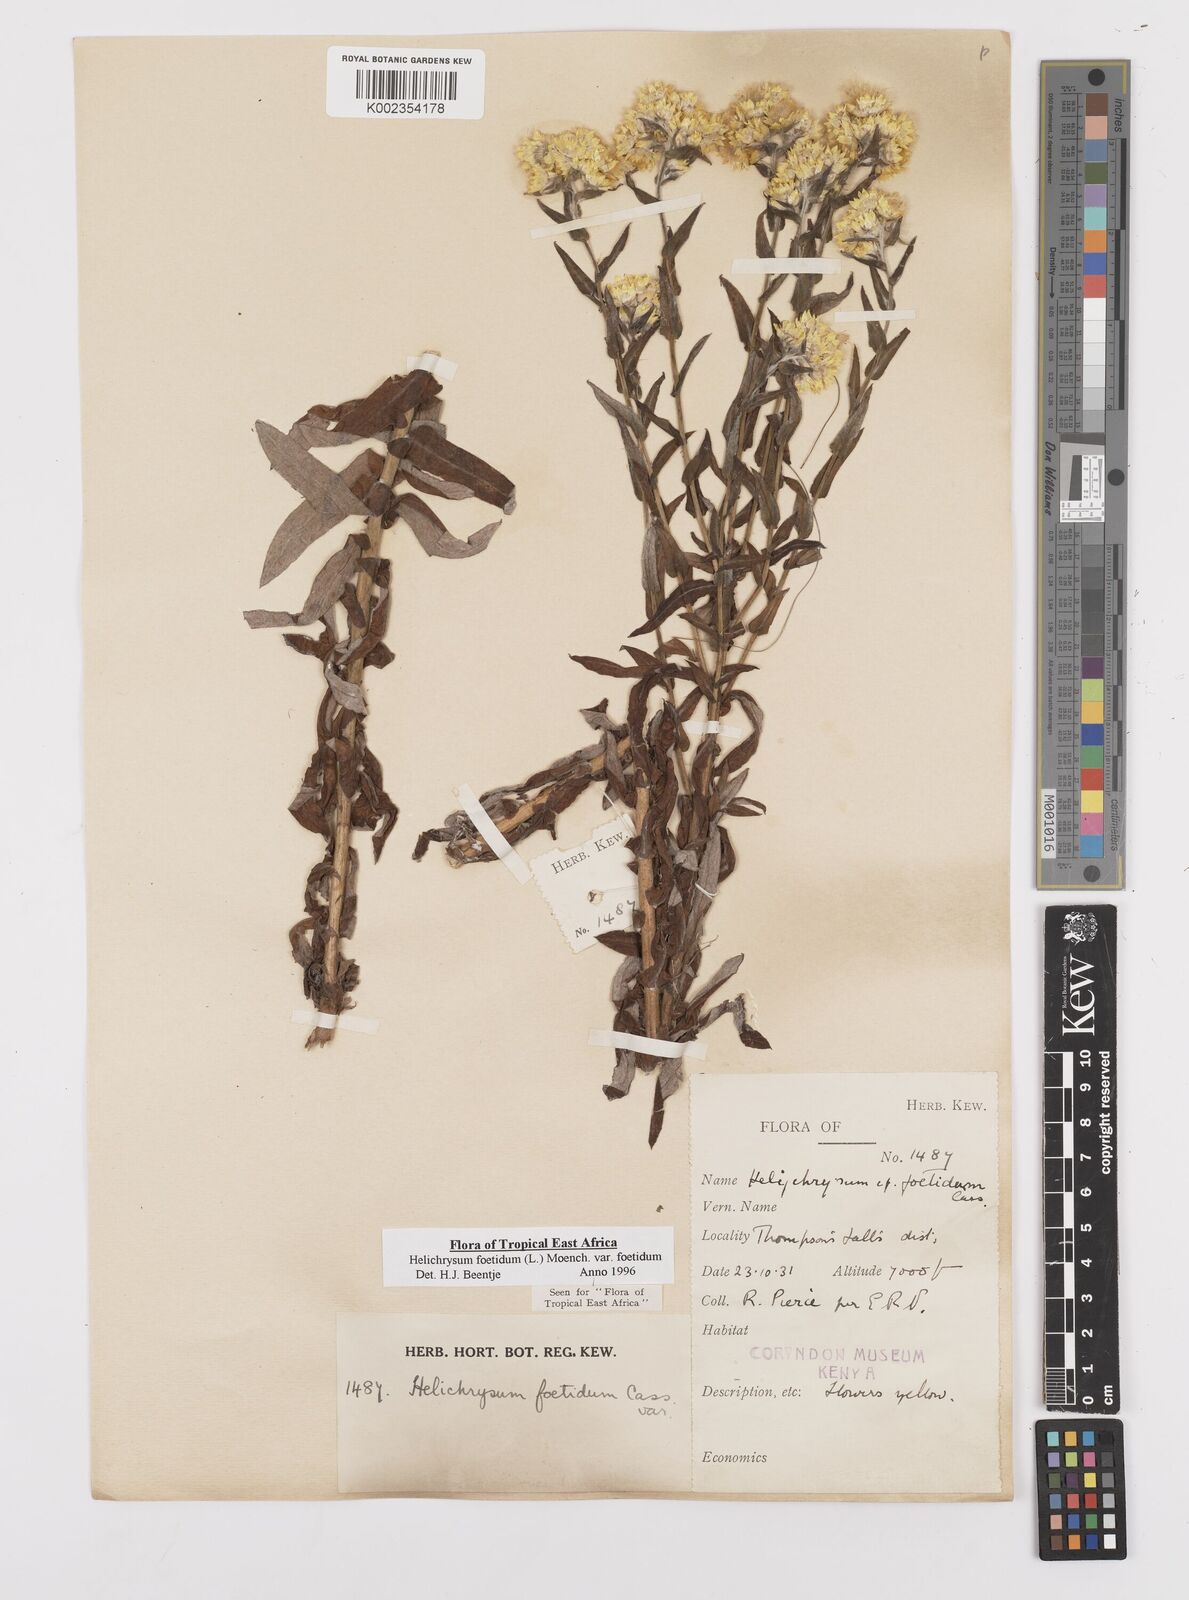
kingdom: Plantae
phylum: Tracheophyta
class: Magnoliopsida
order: Asterales
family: Asteraceae
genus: Helichrysum
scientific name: Helichrysum foetidum
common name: Stinking everlasting
